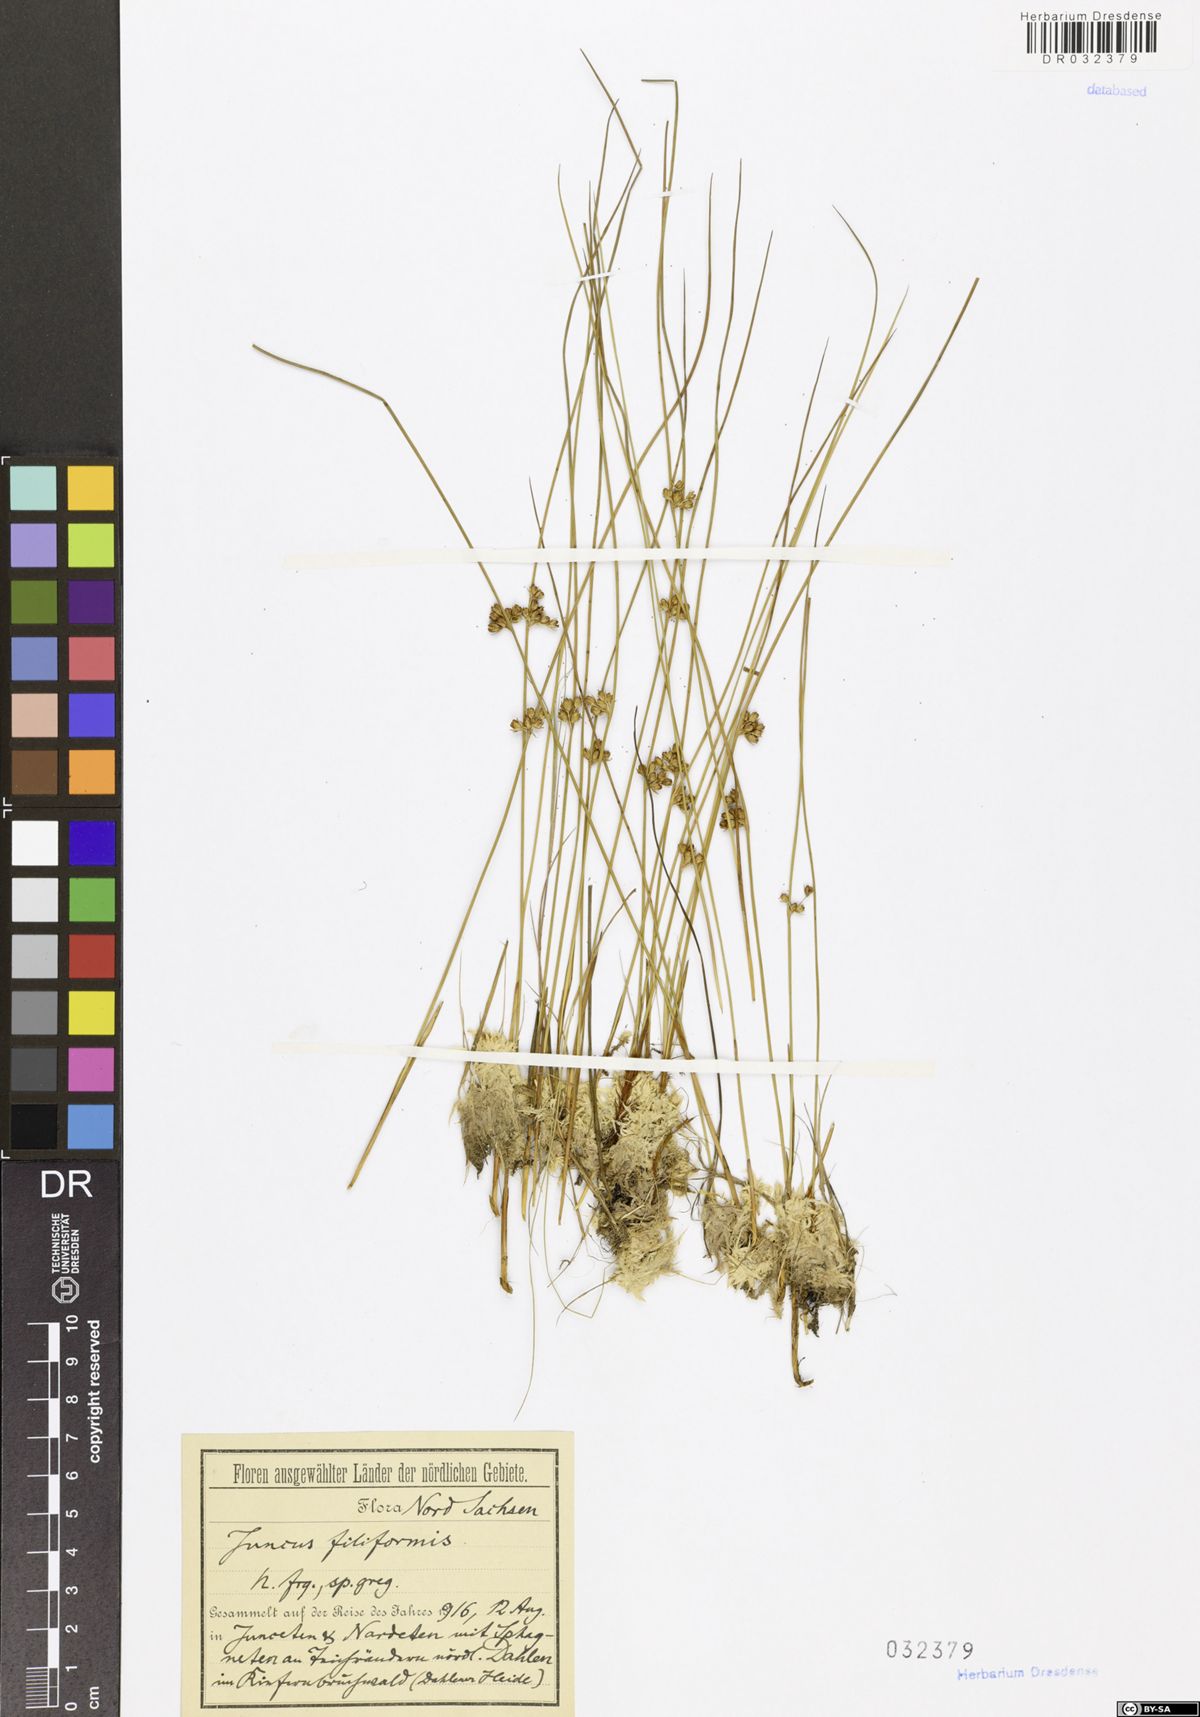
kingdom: Plantae
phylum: Tracheophyta
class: Liliopsida
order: Poales
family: Juncaceae
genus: Juncus
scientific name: Juncus inflexus
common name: Hard rush
